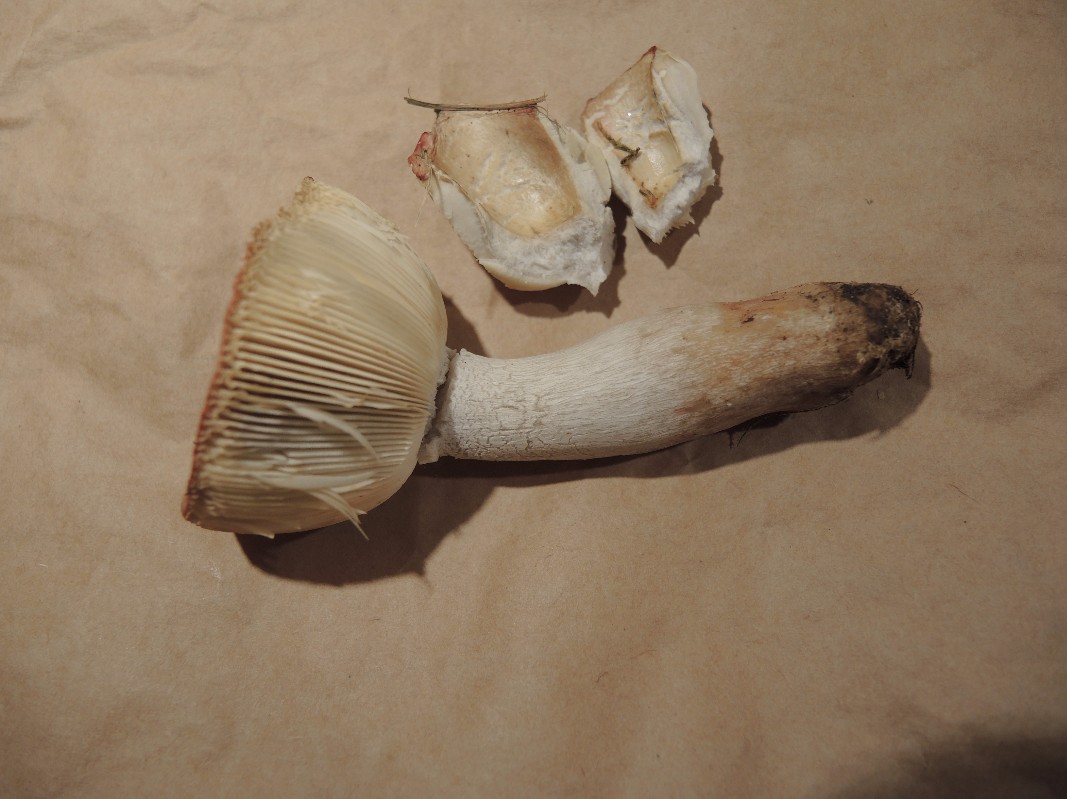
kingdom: Fungi
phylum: Basidiomycota
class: Agaricomycetes
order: Russulales
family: Russulaceae
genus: Russula
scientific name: Russula depallens
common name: falmende skørhat
